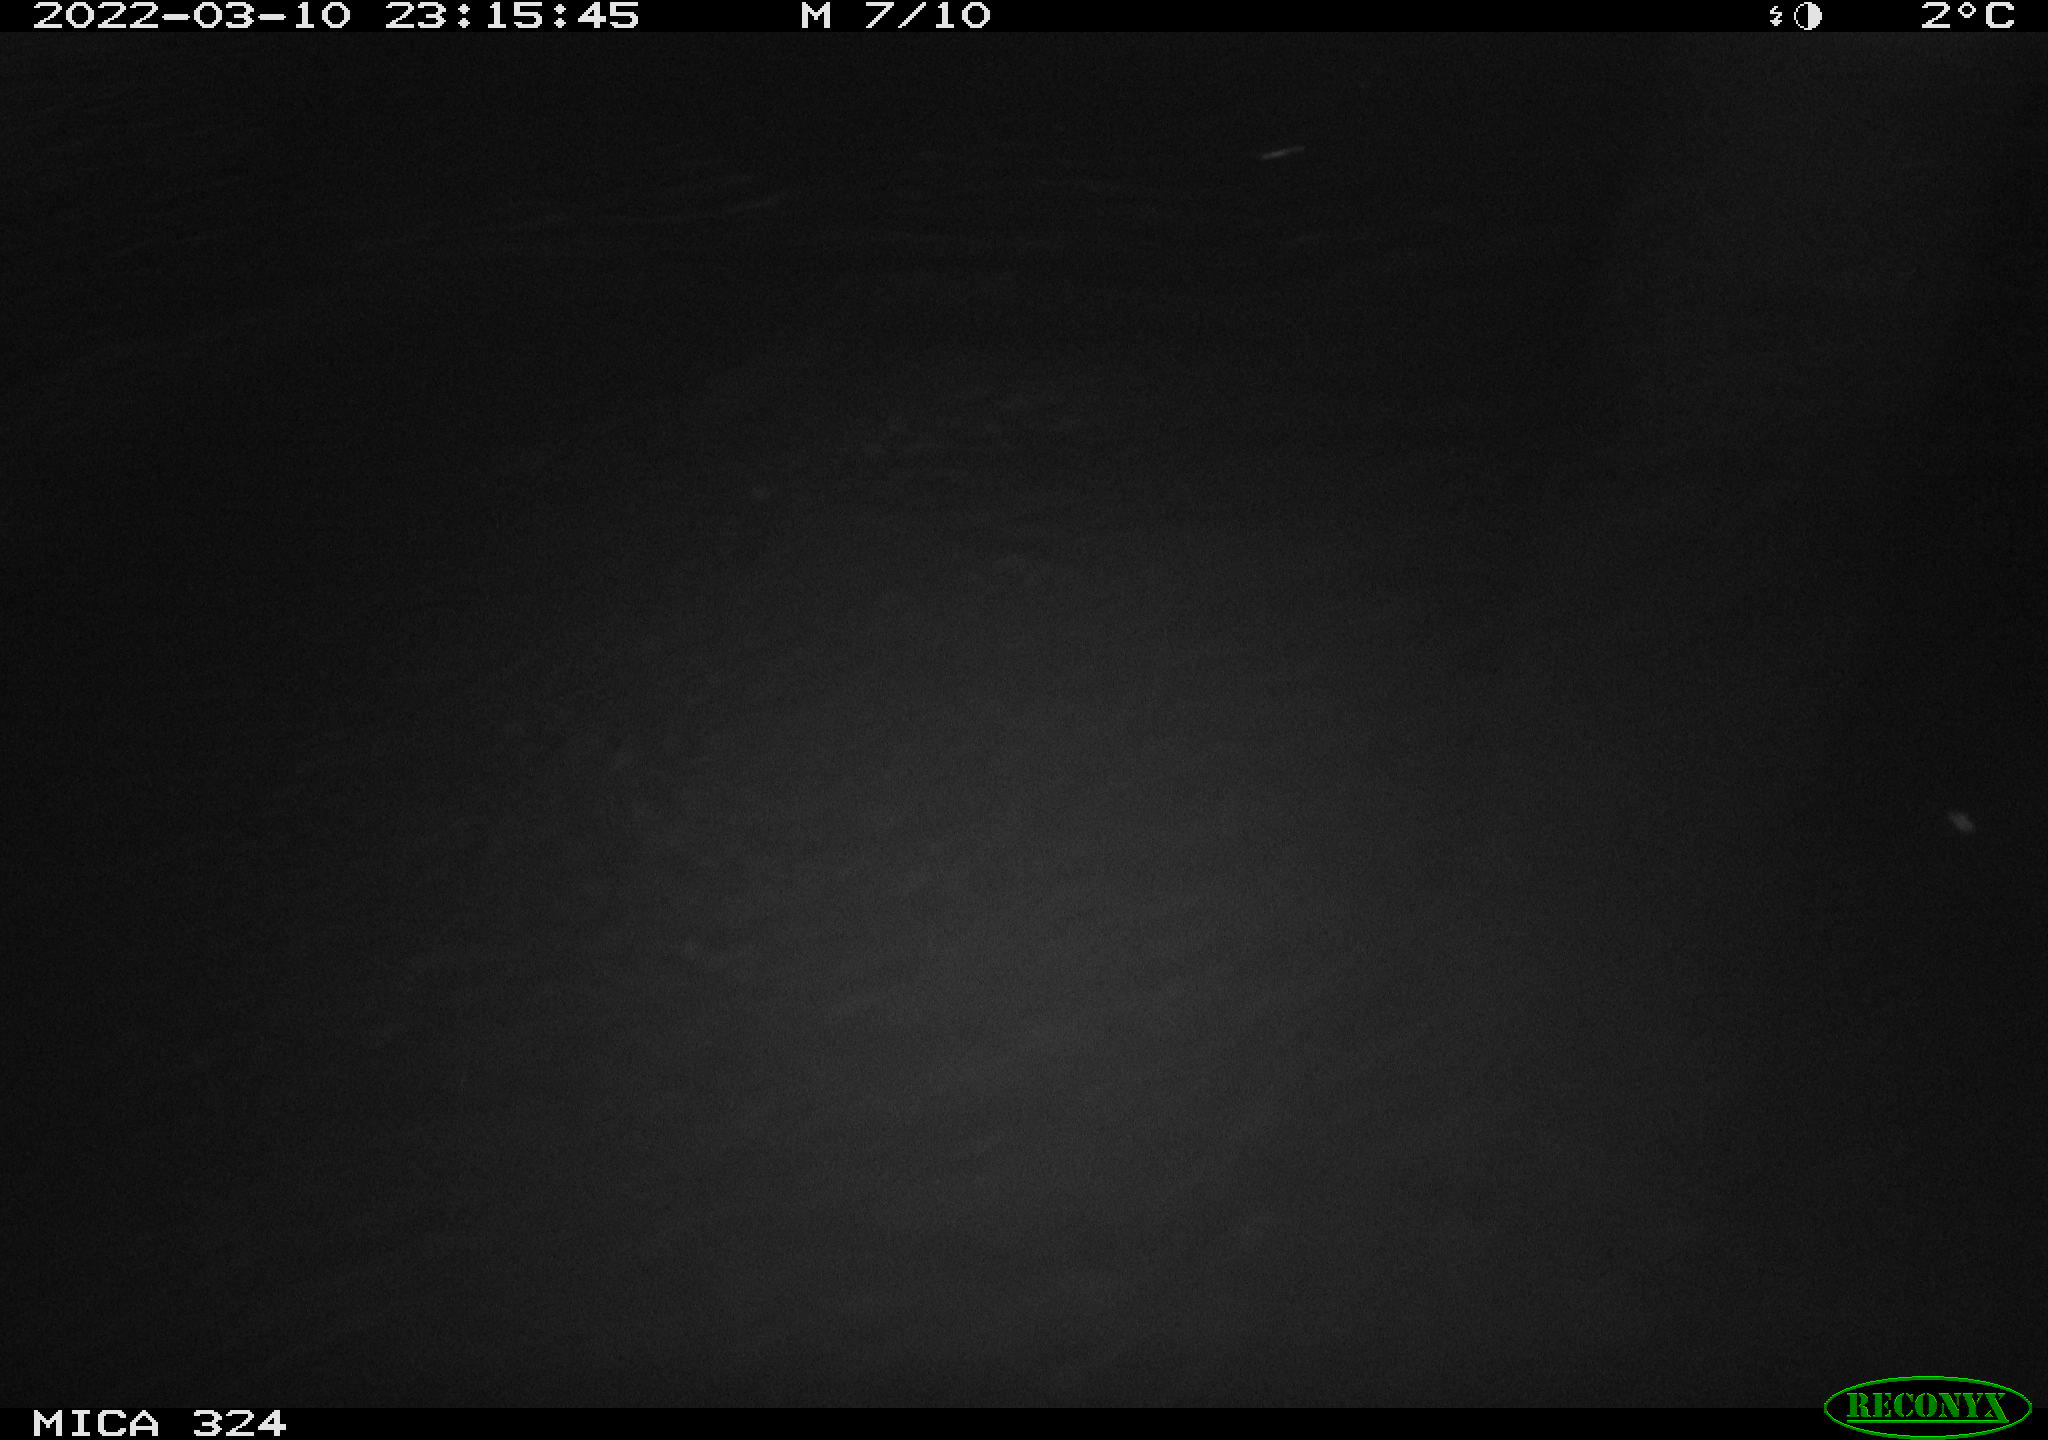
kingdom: Animalia
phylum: Chordata
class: Mammalia
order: Rodentia
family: Muridae
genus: Rattus
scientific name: Rattus norvegicus
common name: Brown rat
